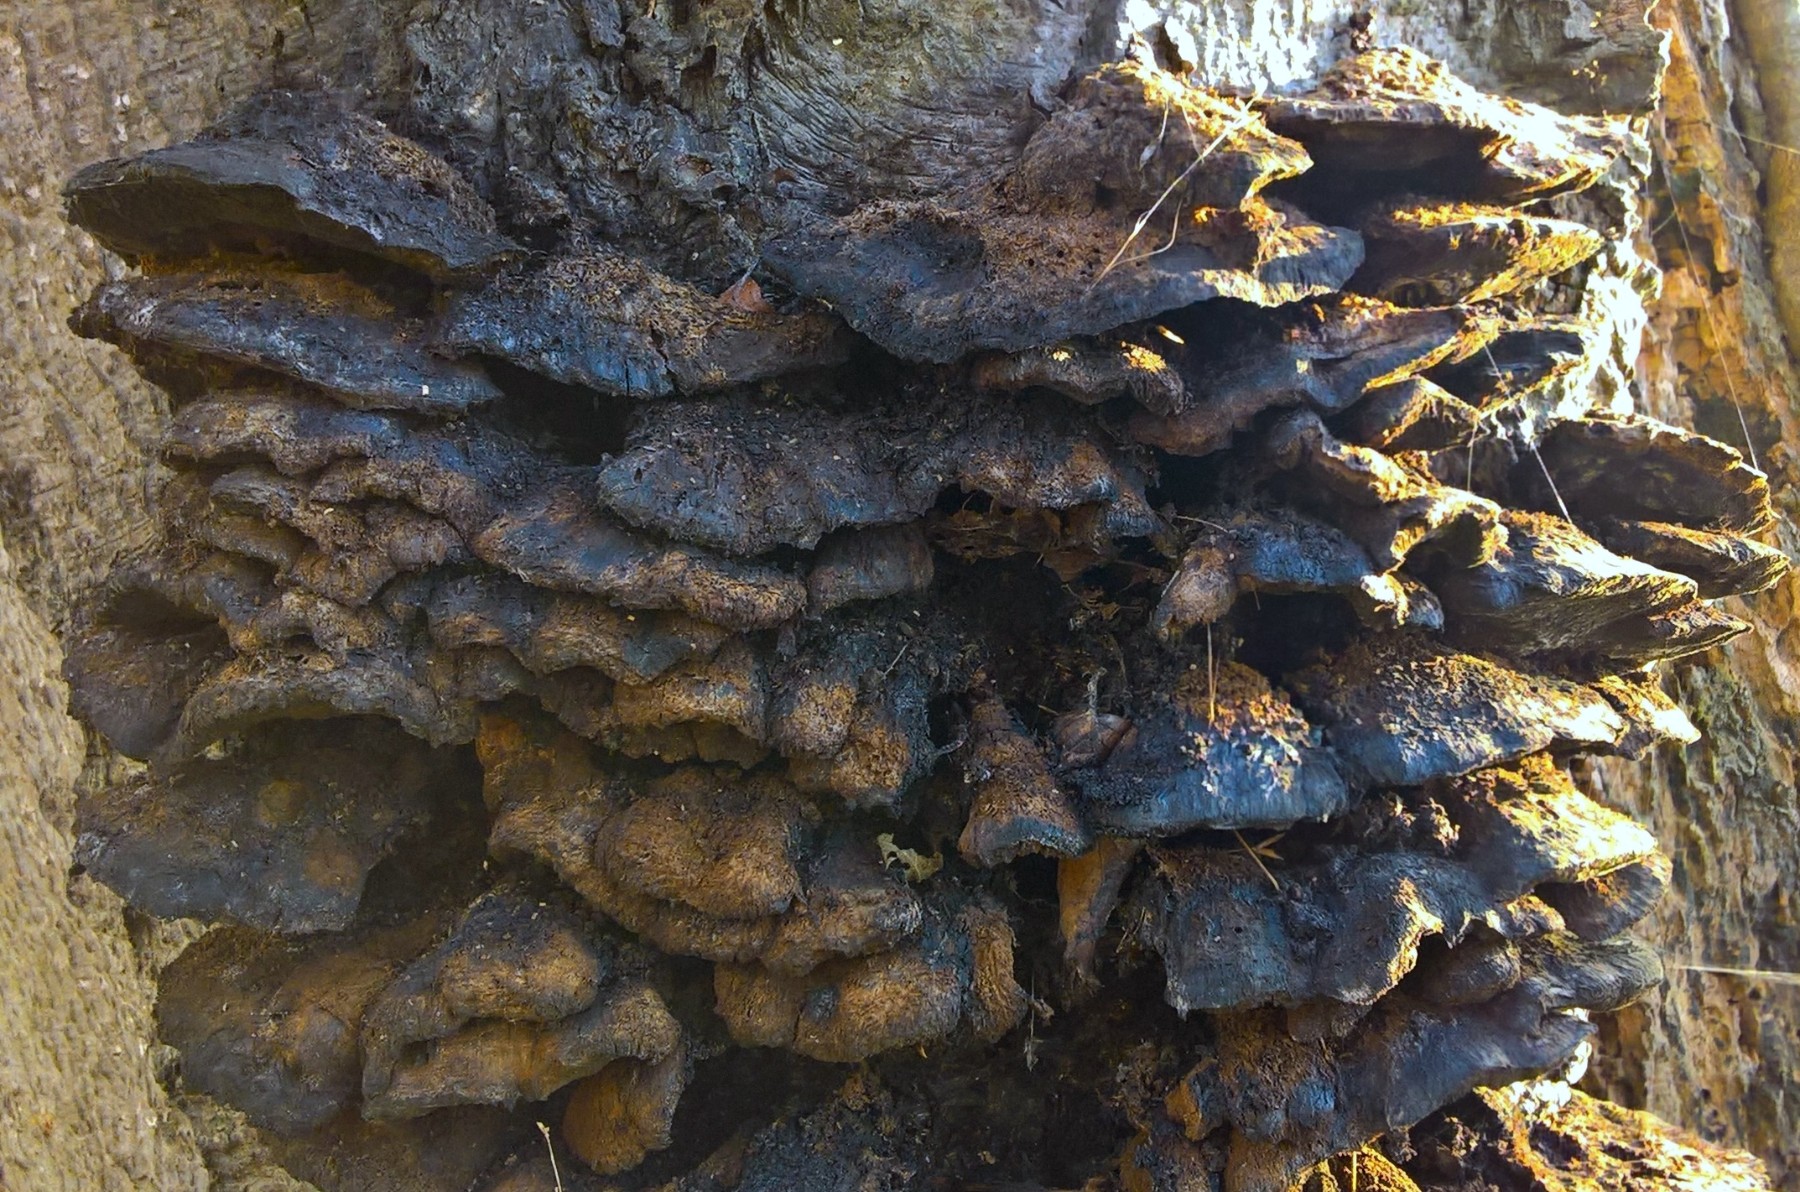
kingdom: Fungi
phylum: Basidiomycota
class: Agaricomycetes
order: Hymenochaetales
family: Hymenochaetaceae
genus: Inonotus
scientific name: Inonotus cuticularis
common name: kroghåret spejlporesvamp
